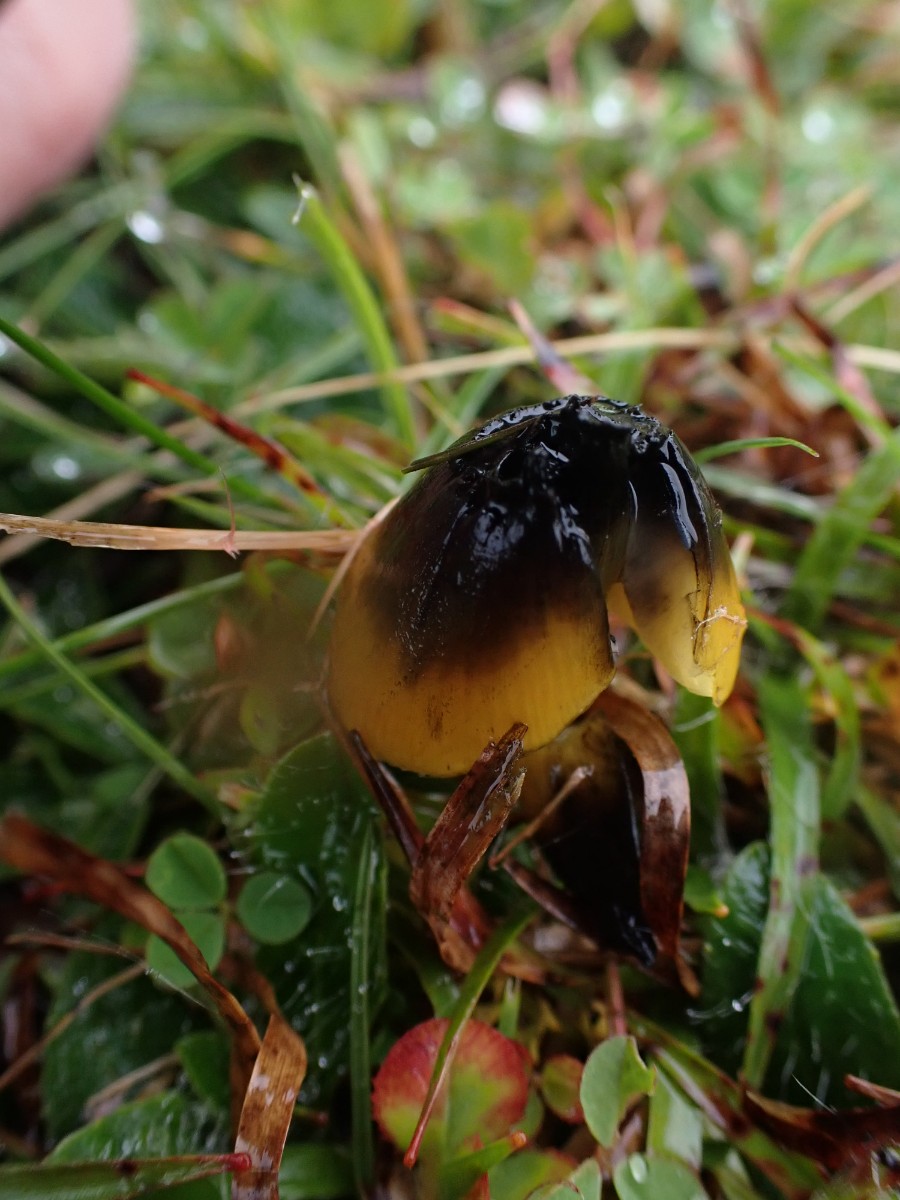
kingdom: Fungi
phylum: Basidiomycota
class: Agaricomycetes
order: Agaricales
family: Hygrophoraceae
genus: Hygrocybe
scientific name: Hygrocybe conica
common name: kegle-vokshat
